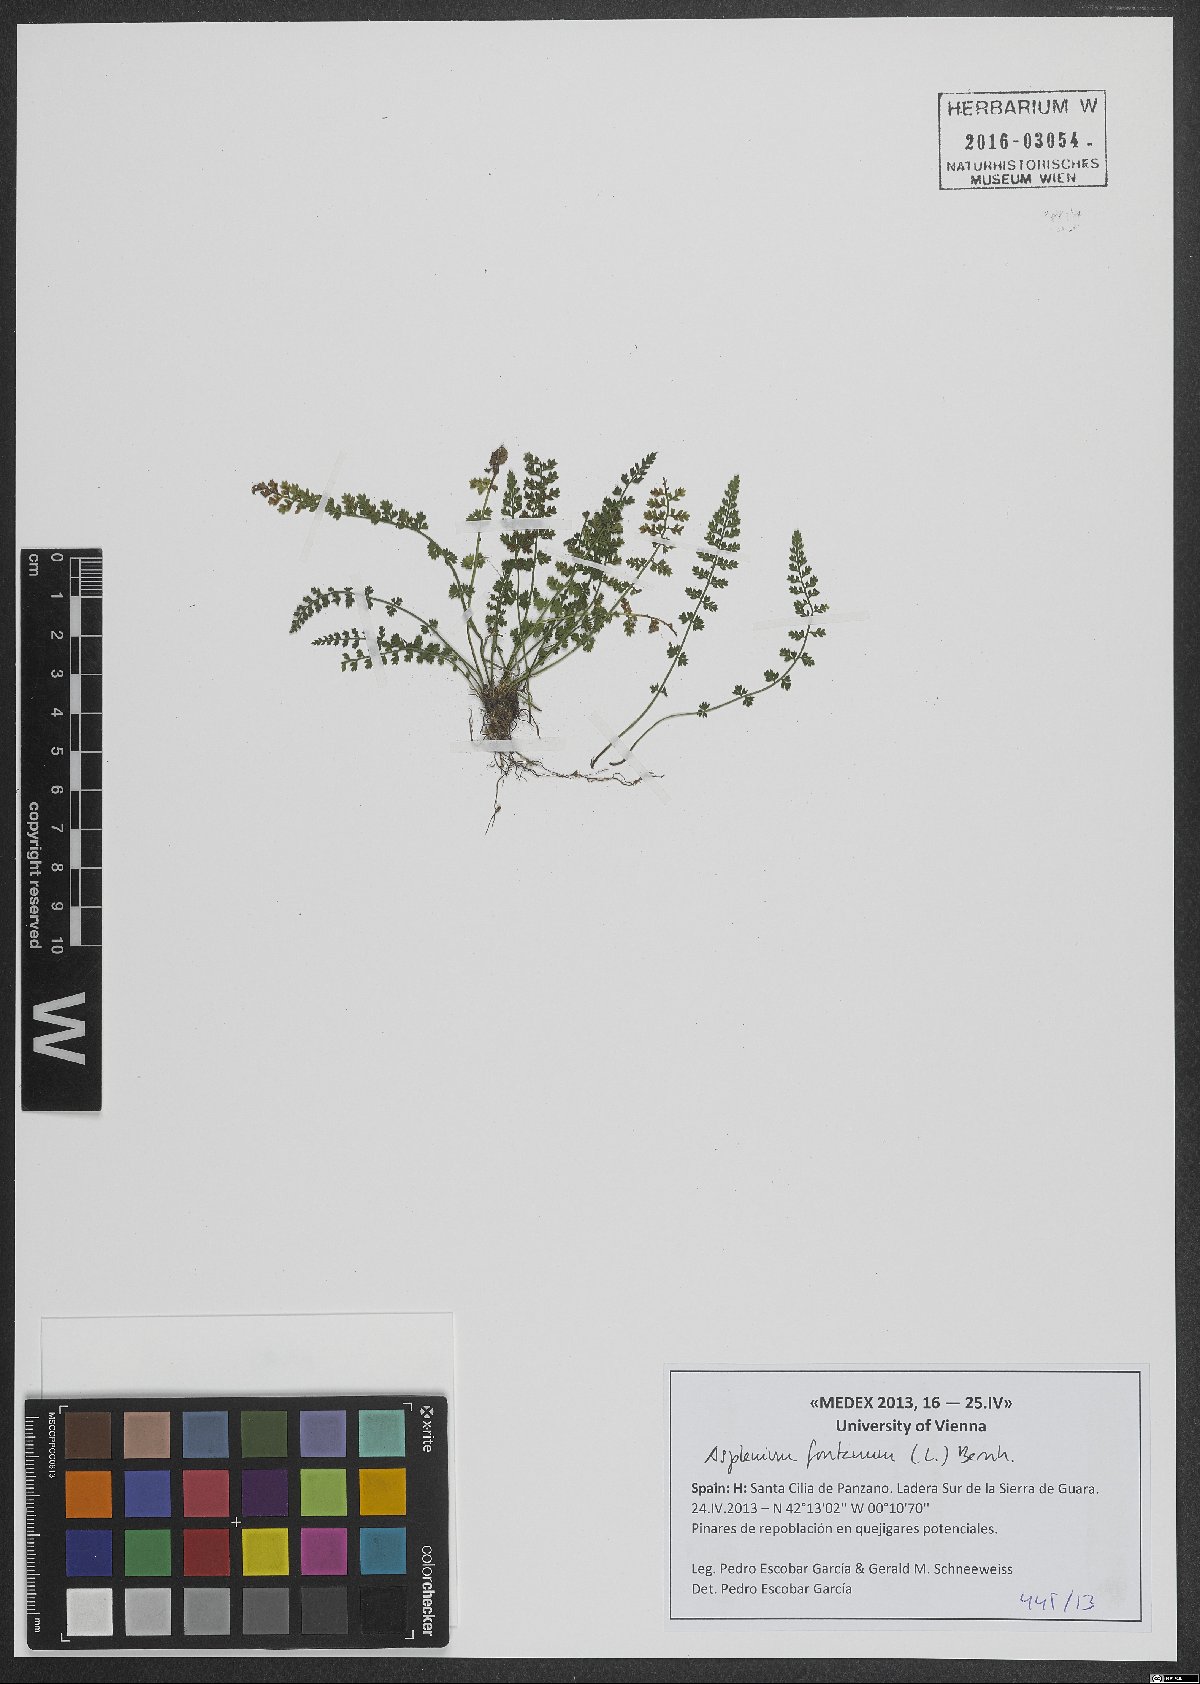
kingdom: Plantae
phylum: Tracheophyta
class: Polypodiopsida
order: Polypodiales
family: Aspleniaceae
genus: Asplenium
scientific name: Asplenium fontanum
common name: Fountain spleenwort
